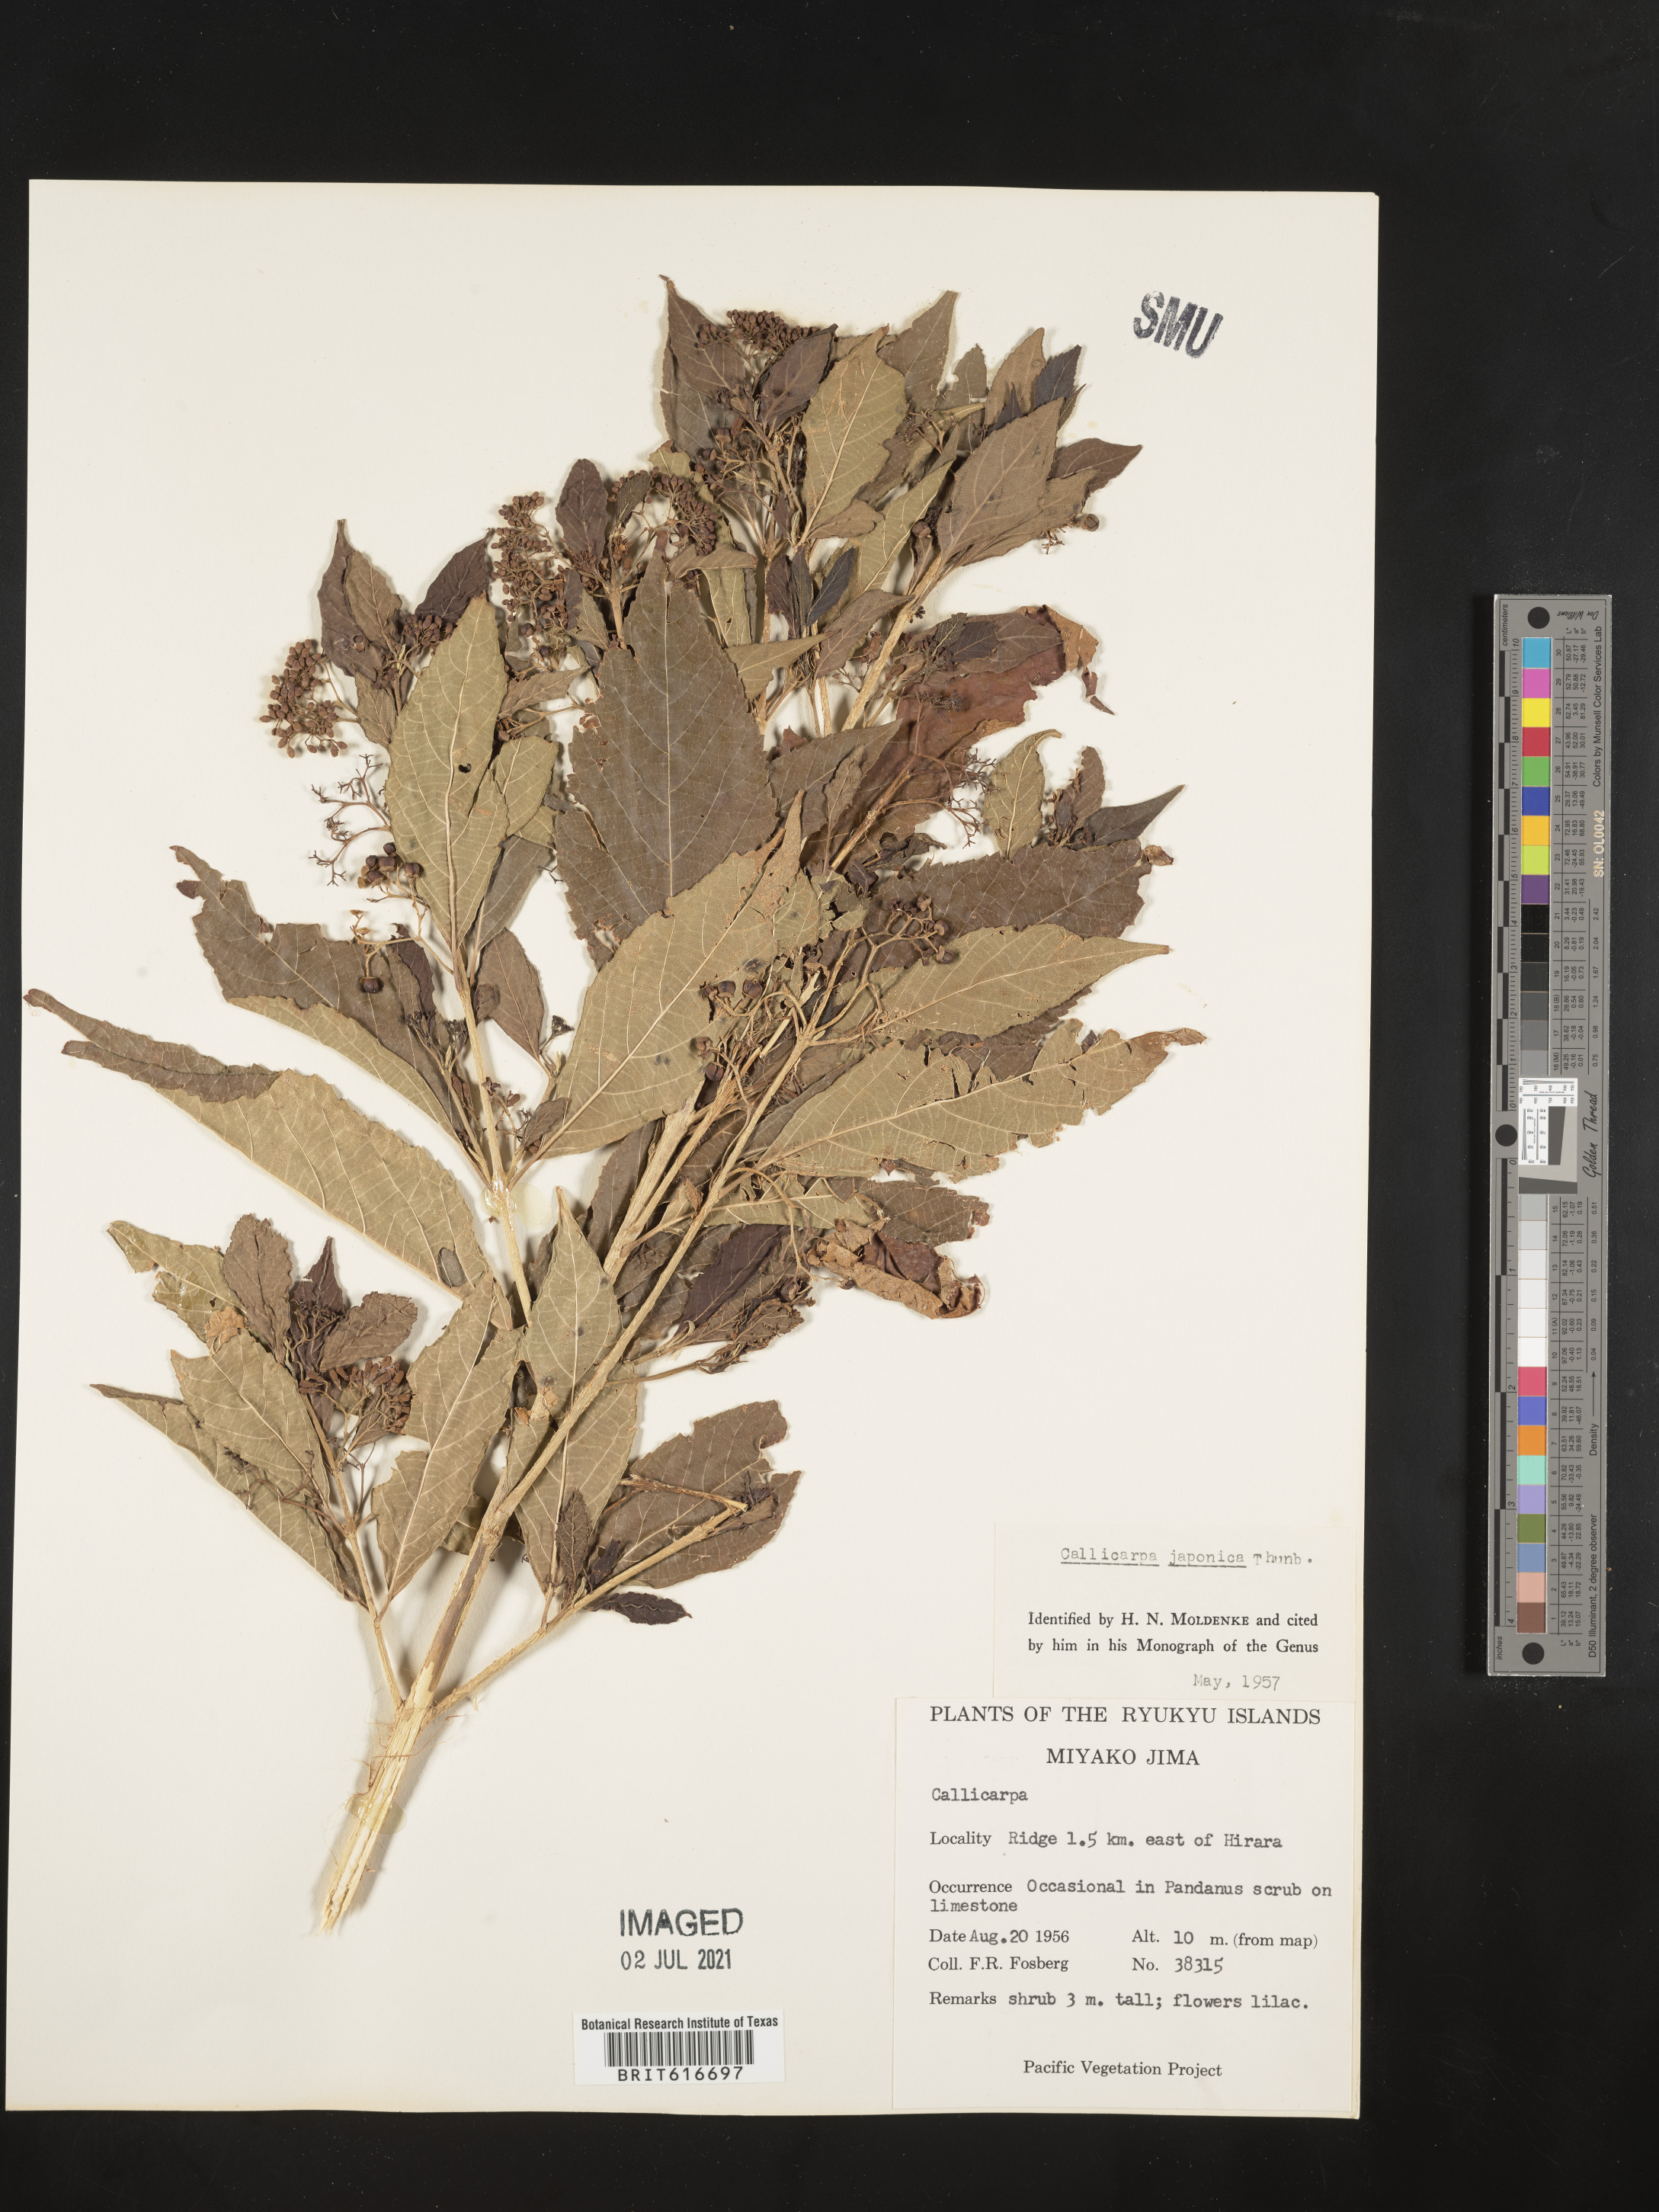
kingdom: Plantae
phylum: Tracheophyta
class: Magnoliopsida
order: Lamiales
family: Lamiaceae
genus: Callicarpa
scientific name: Callicarpa japonica
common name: Japanese beauty-berry
